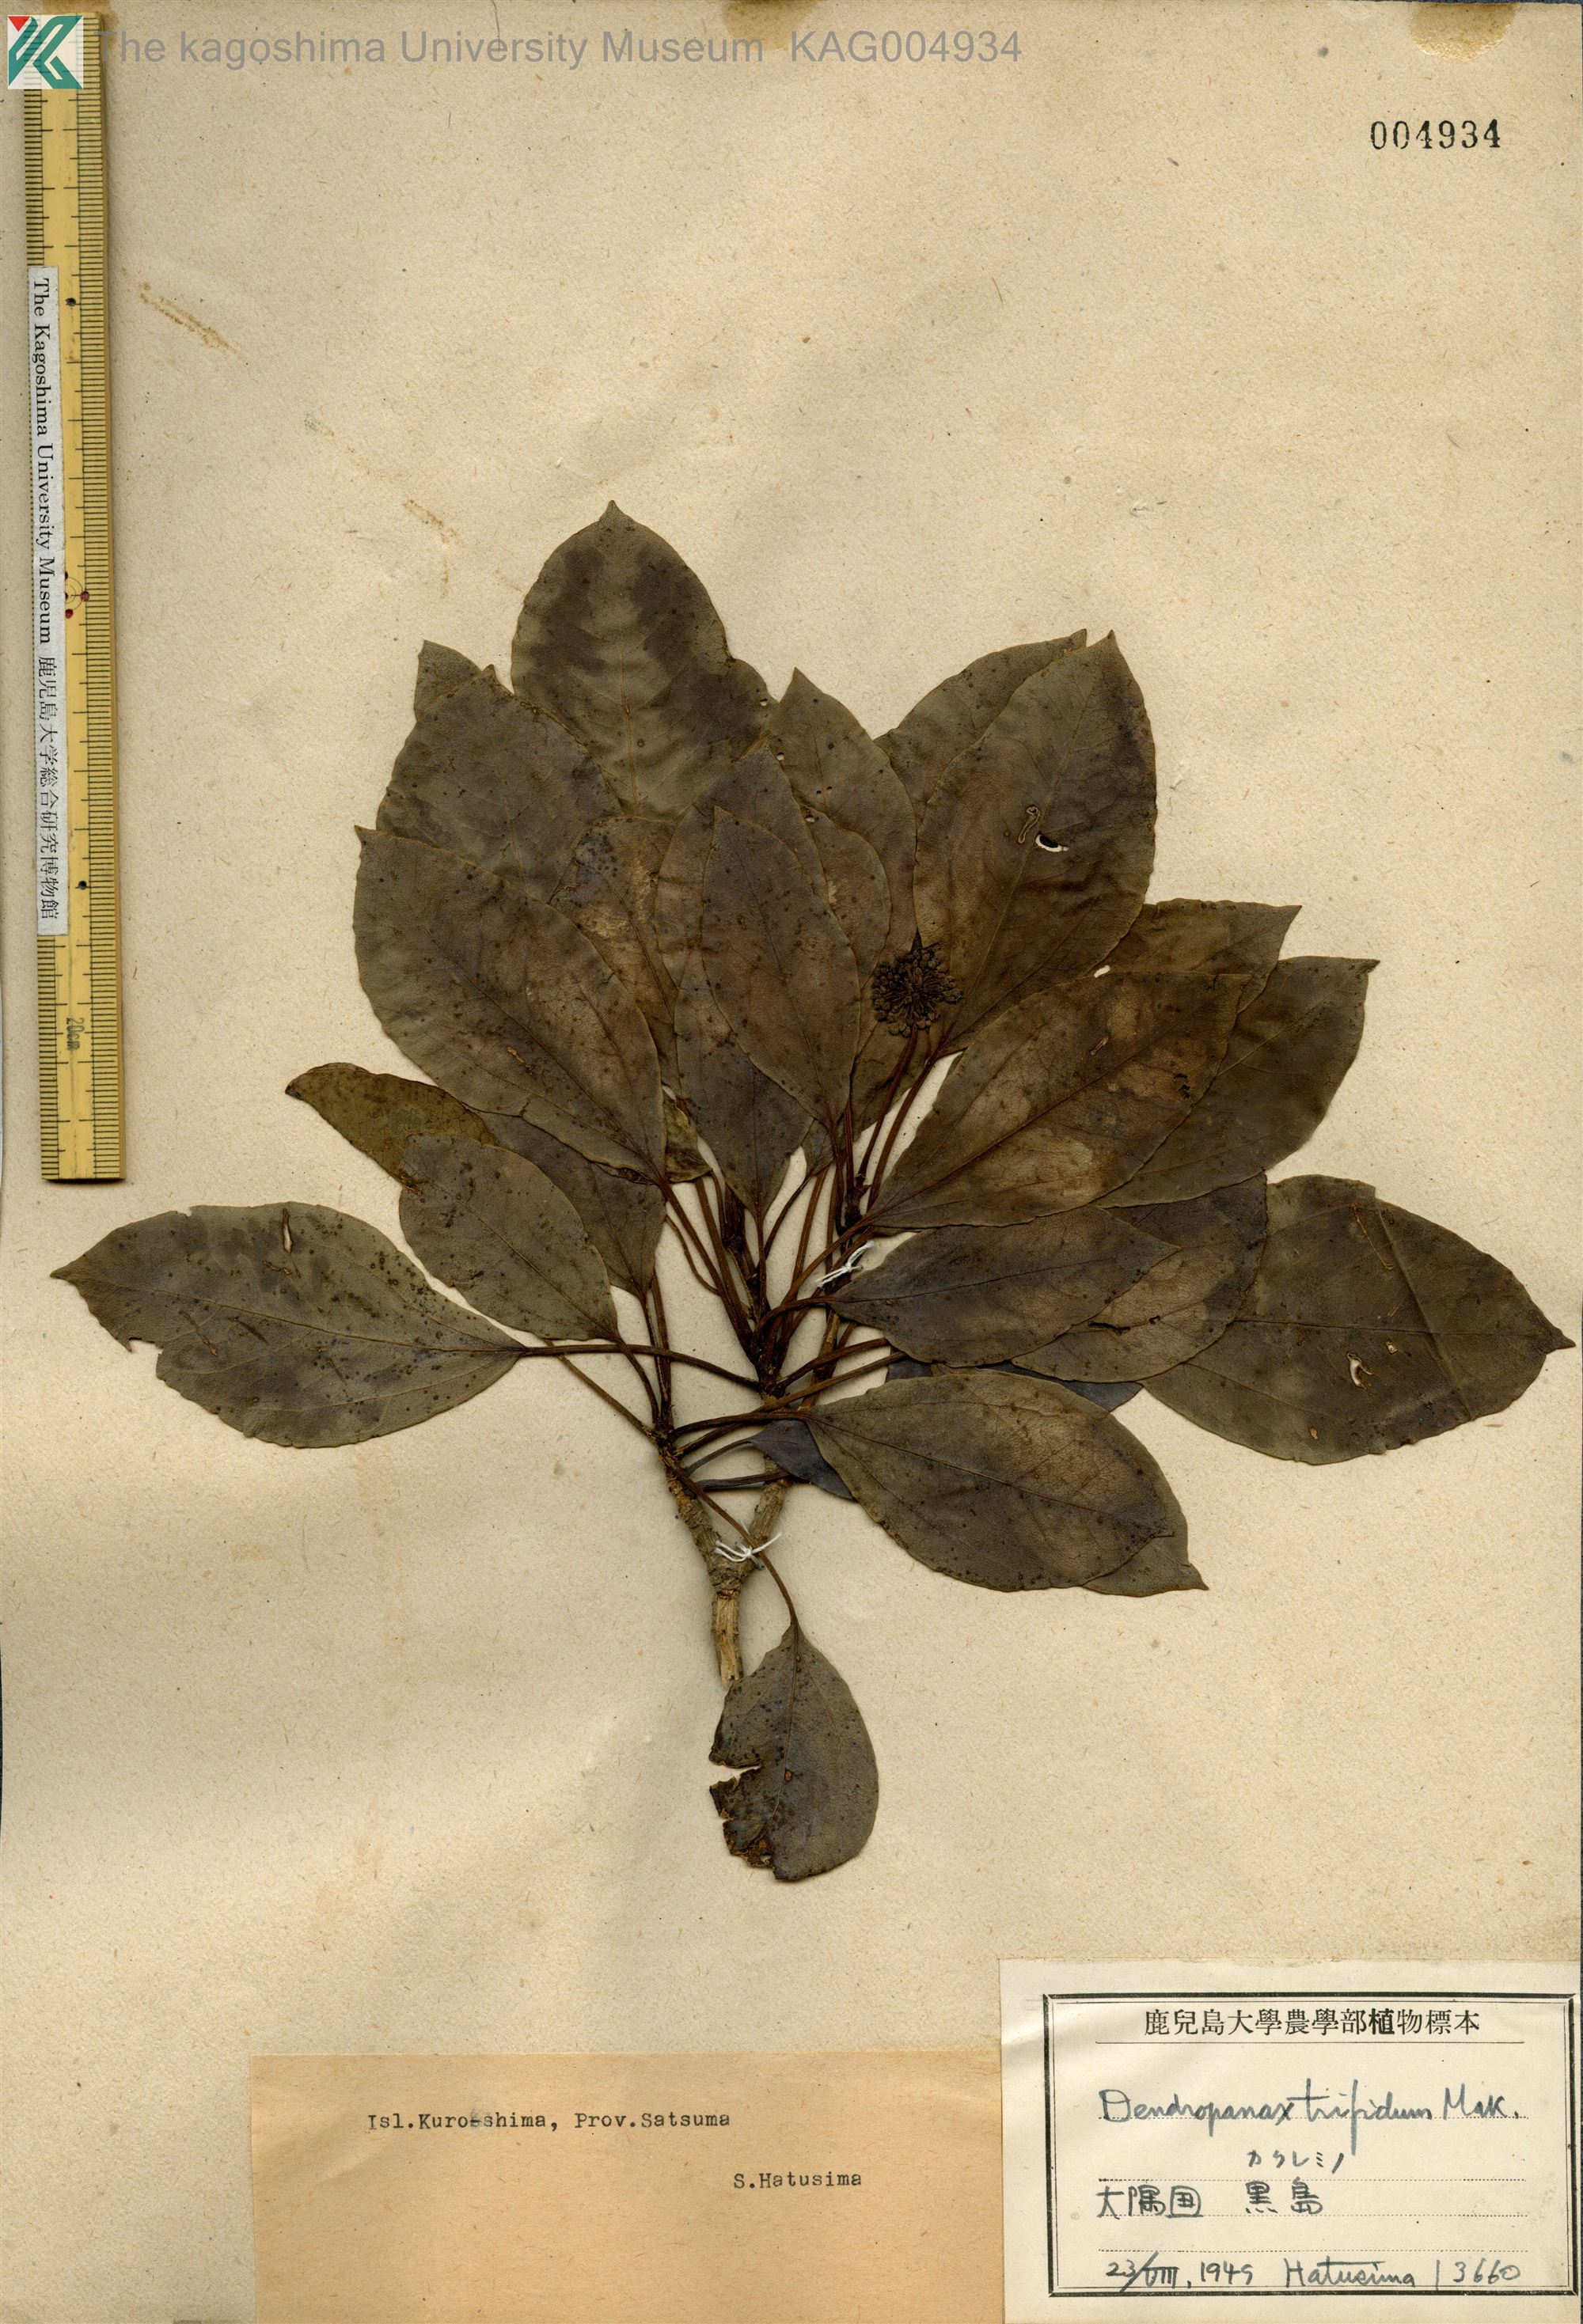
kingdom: Plantae
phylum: Tracheophyta
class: Magnoliopsida
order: Apiales
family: Araliaceae
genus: Dendropanax
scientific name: Dendropanax trifidus
